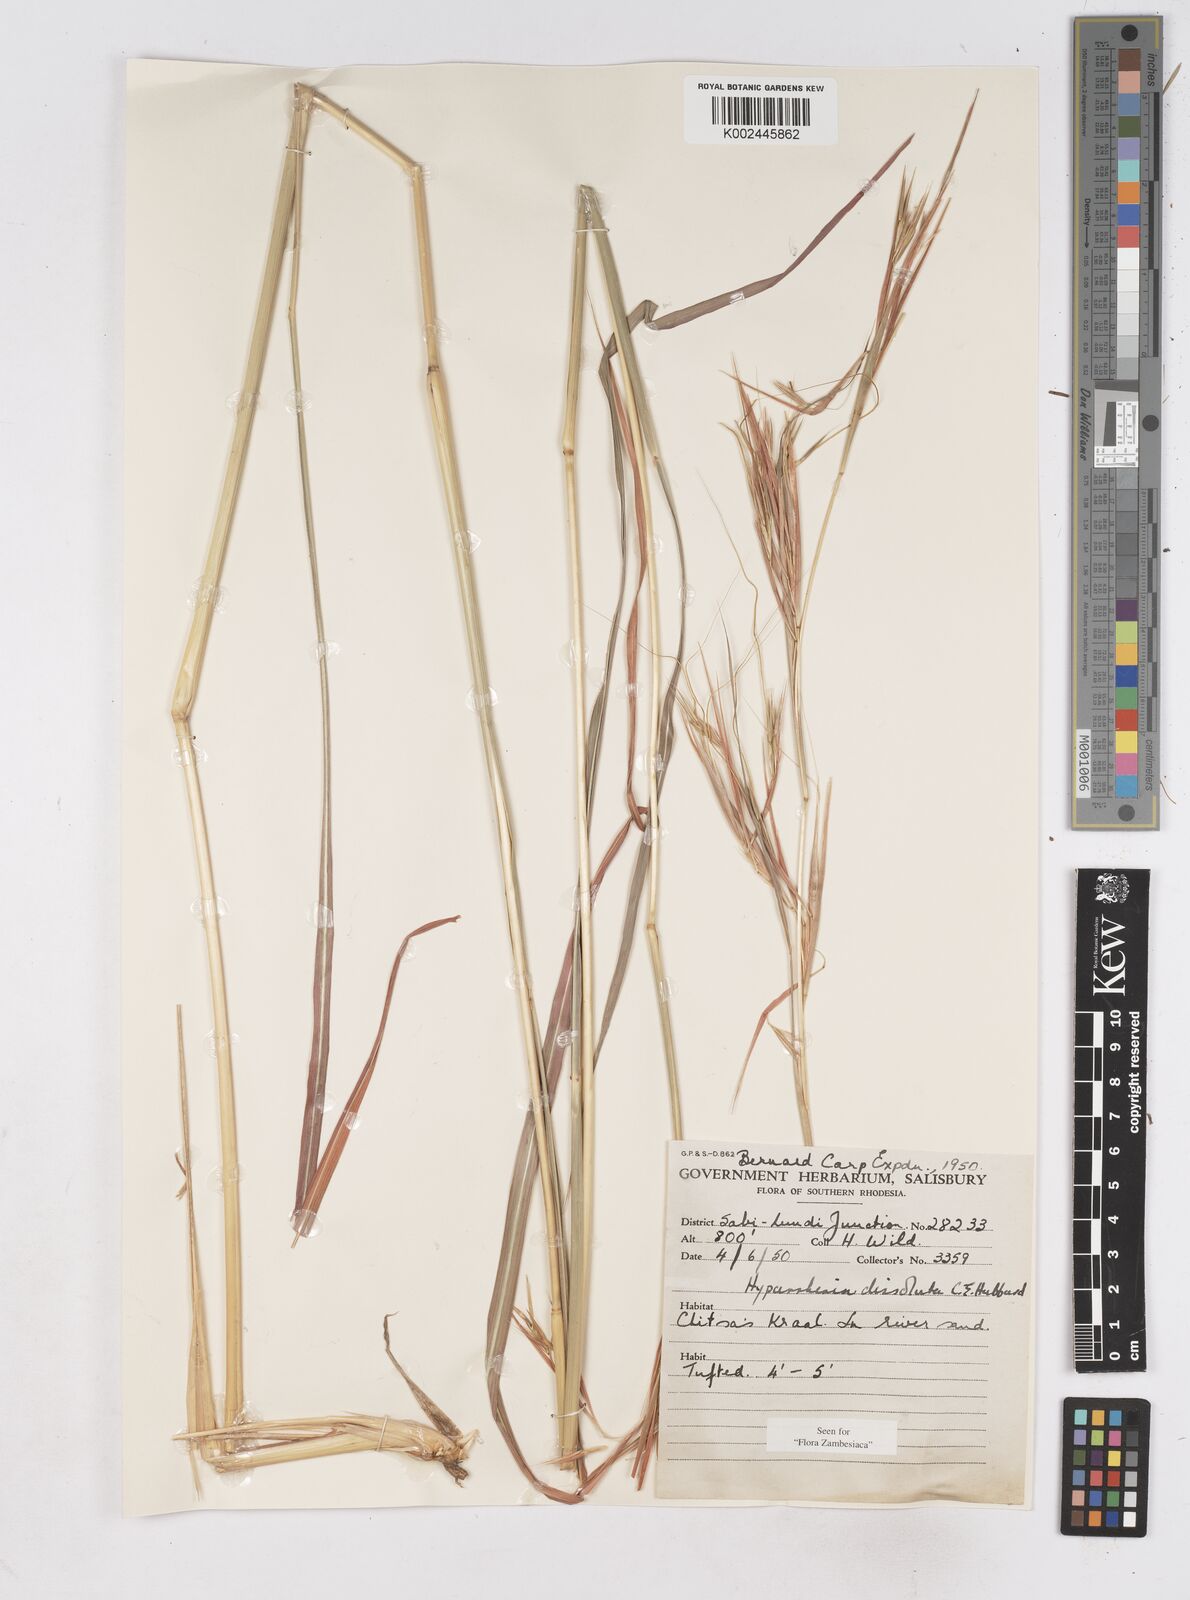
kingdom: Plantae
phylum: Tracheophyta
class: Liliopsida
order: Poales
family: Poaceae
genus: Hyperthelia
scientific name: Hyperthelia dissoluta
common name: Yellow thatching grass
